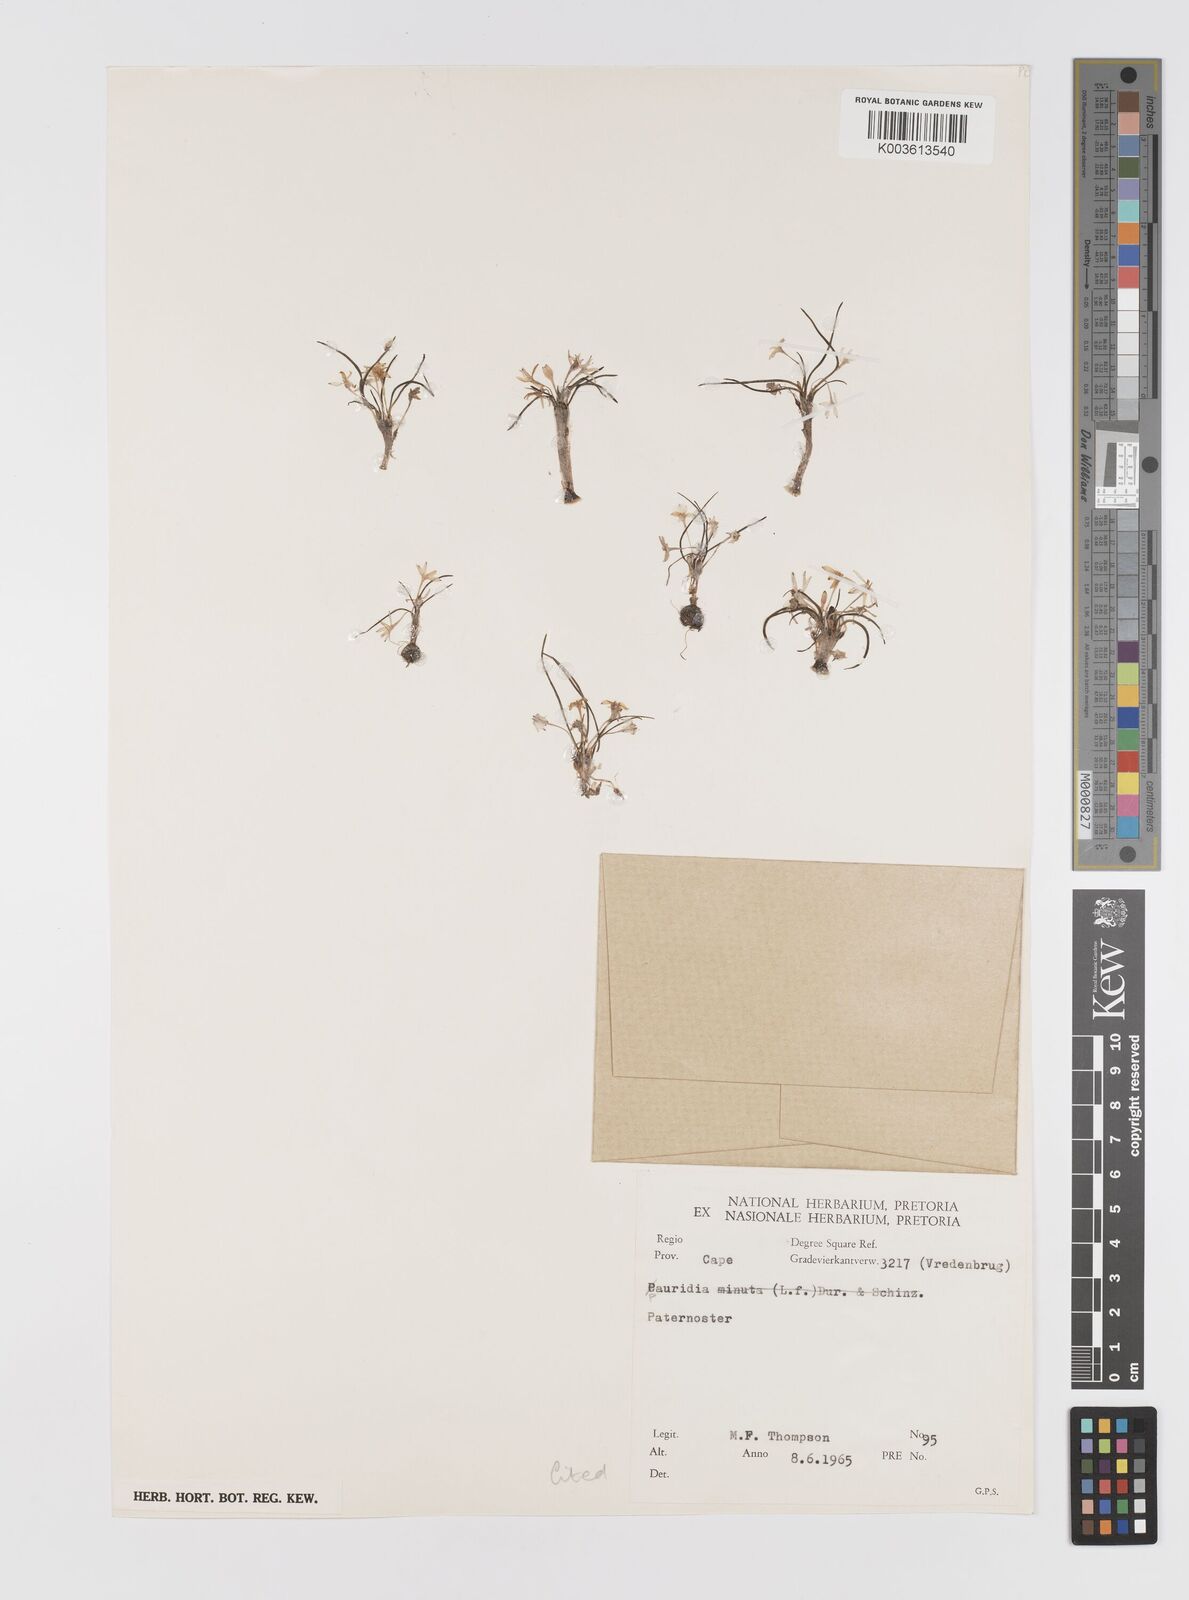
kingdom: Plantae
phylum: Tracheophyta
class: Liliopsida
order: Asparagales
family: Hypoxidaceae
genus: Pauridia
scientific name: Pauridia longituba
